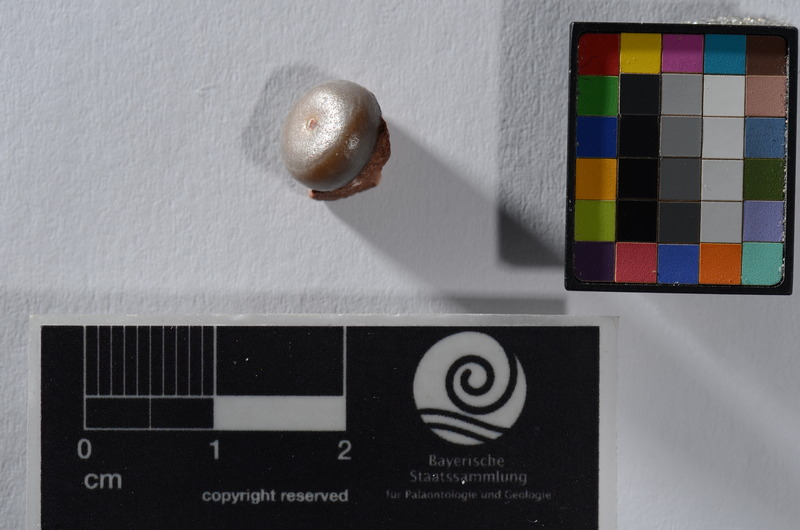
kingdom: Animalia
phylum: Chordata
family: Pycnodontidae
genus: Sphaerodus
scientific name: Sphaerodus
